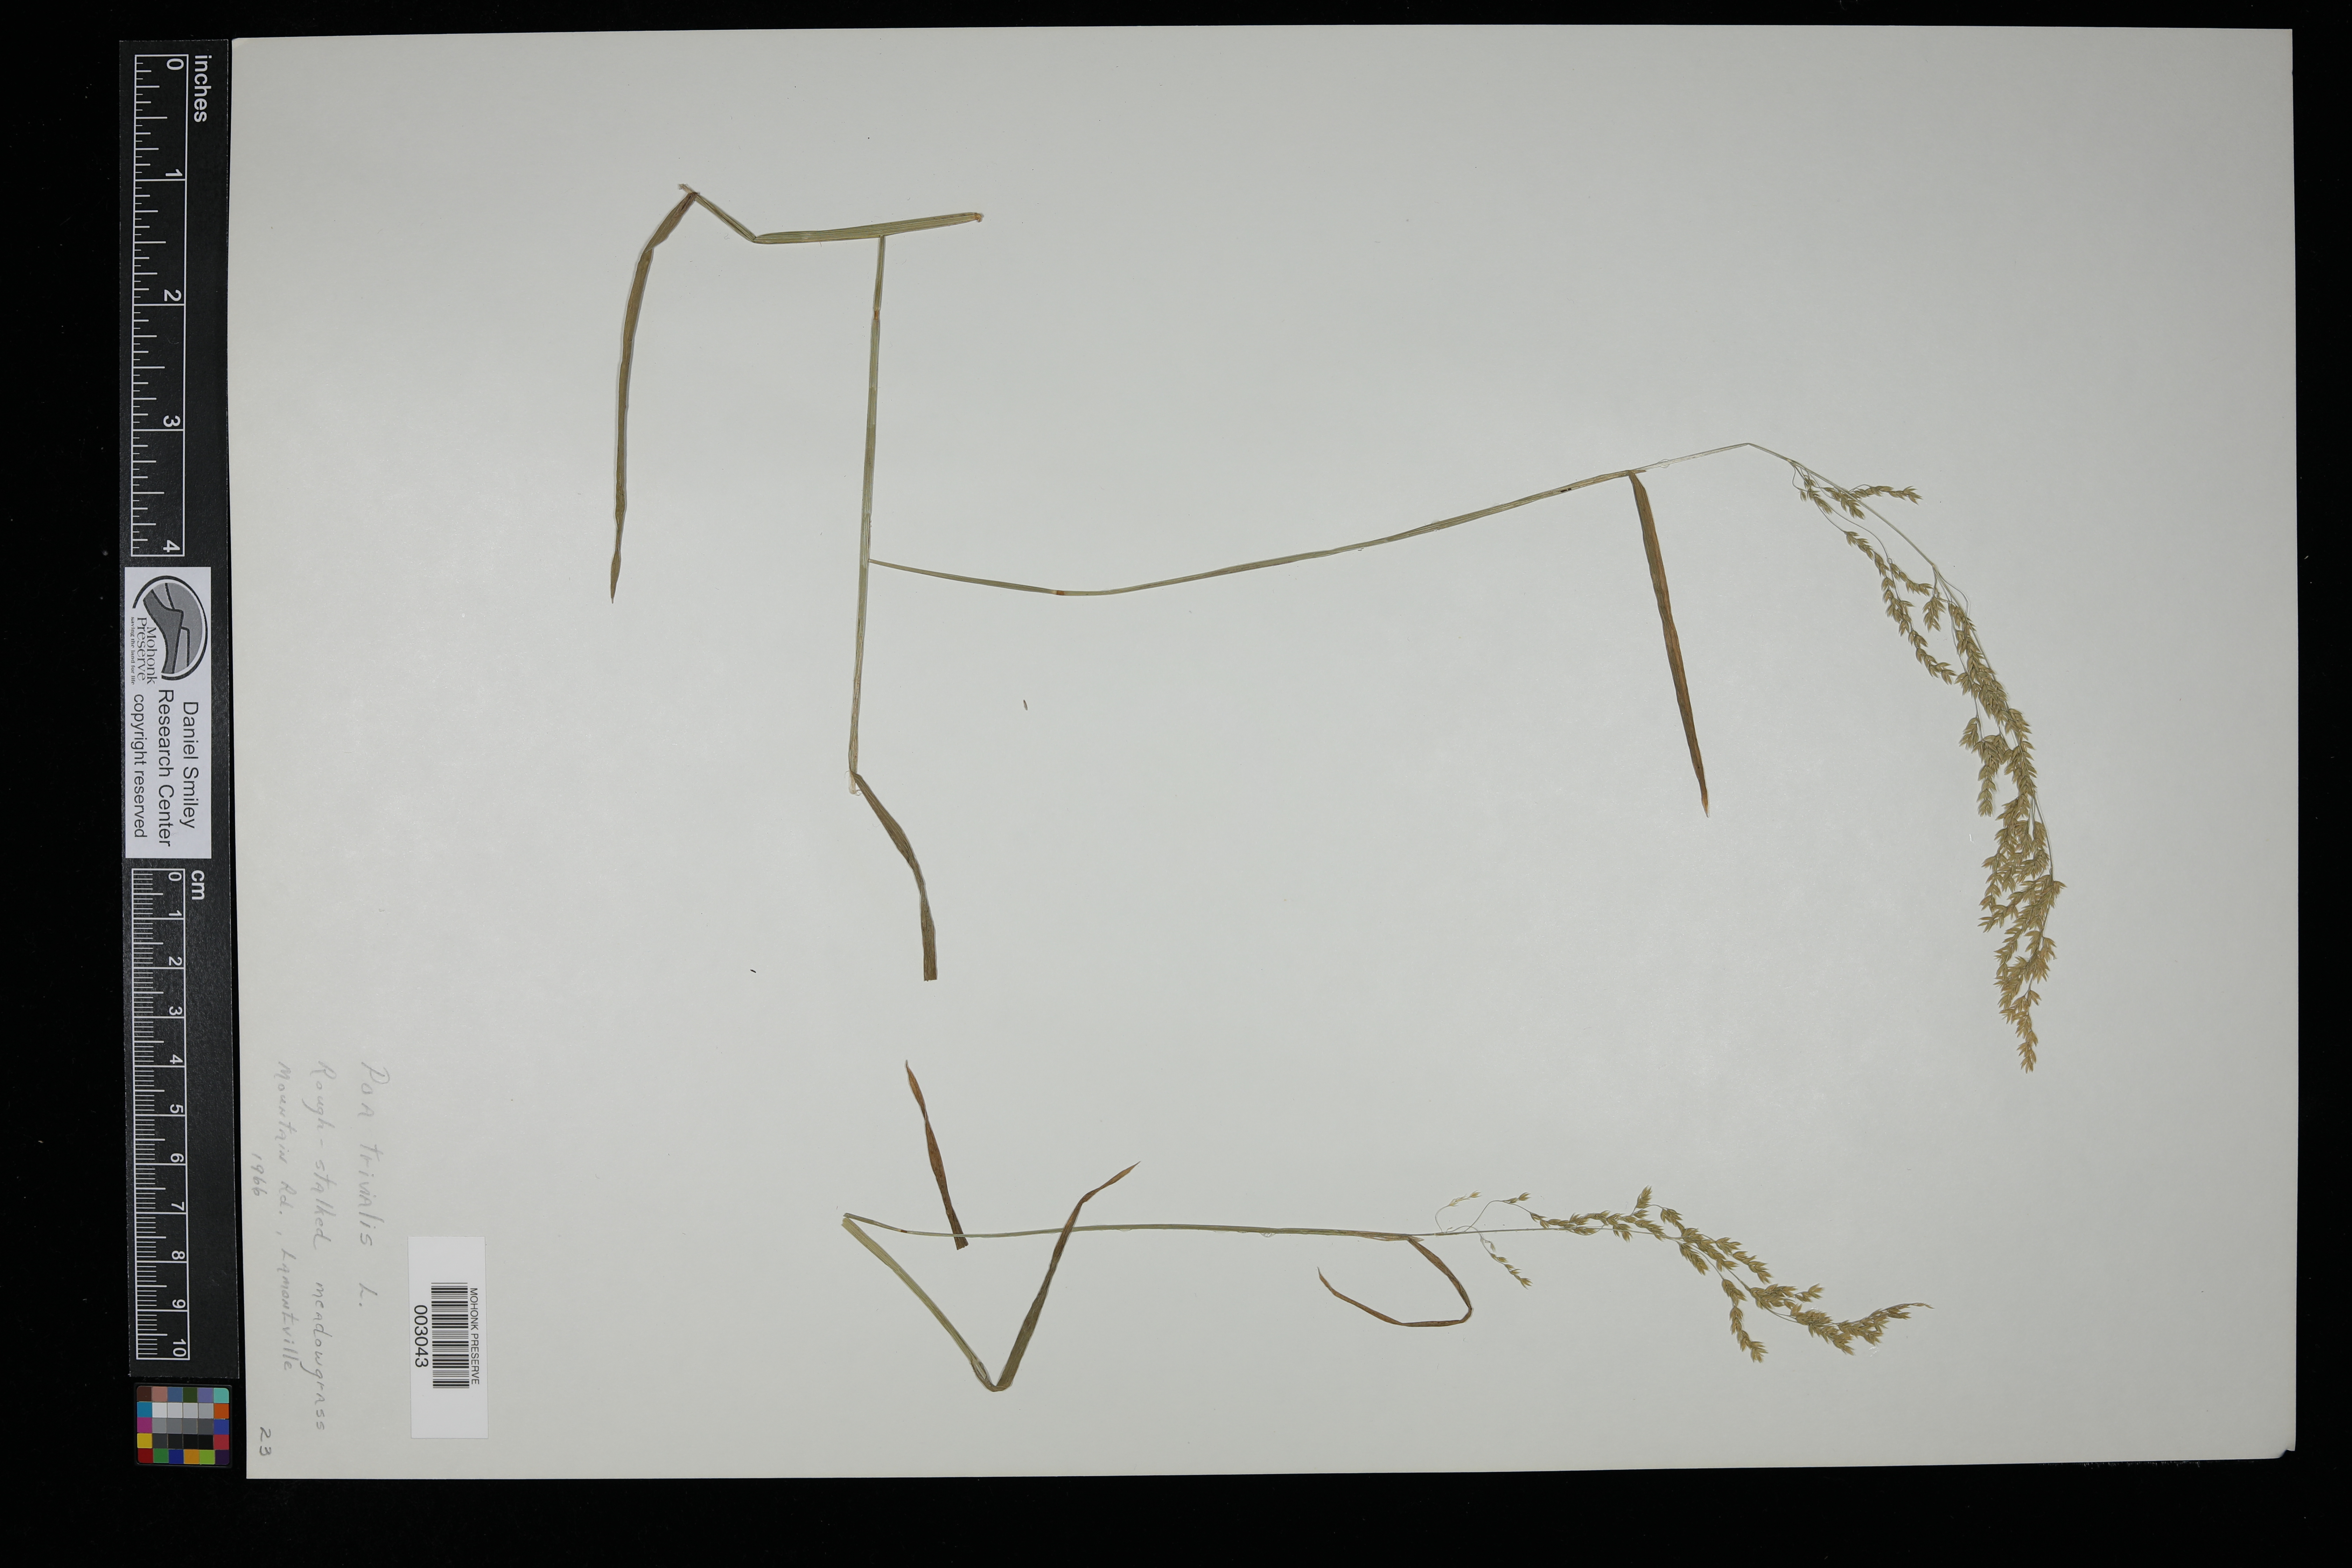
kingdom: Plantae
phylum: Tracheophyta
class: Liliopsida
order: Poales
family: Poaceae
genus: Poa
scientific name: Poa trivialis
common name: Rough bluegrass
